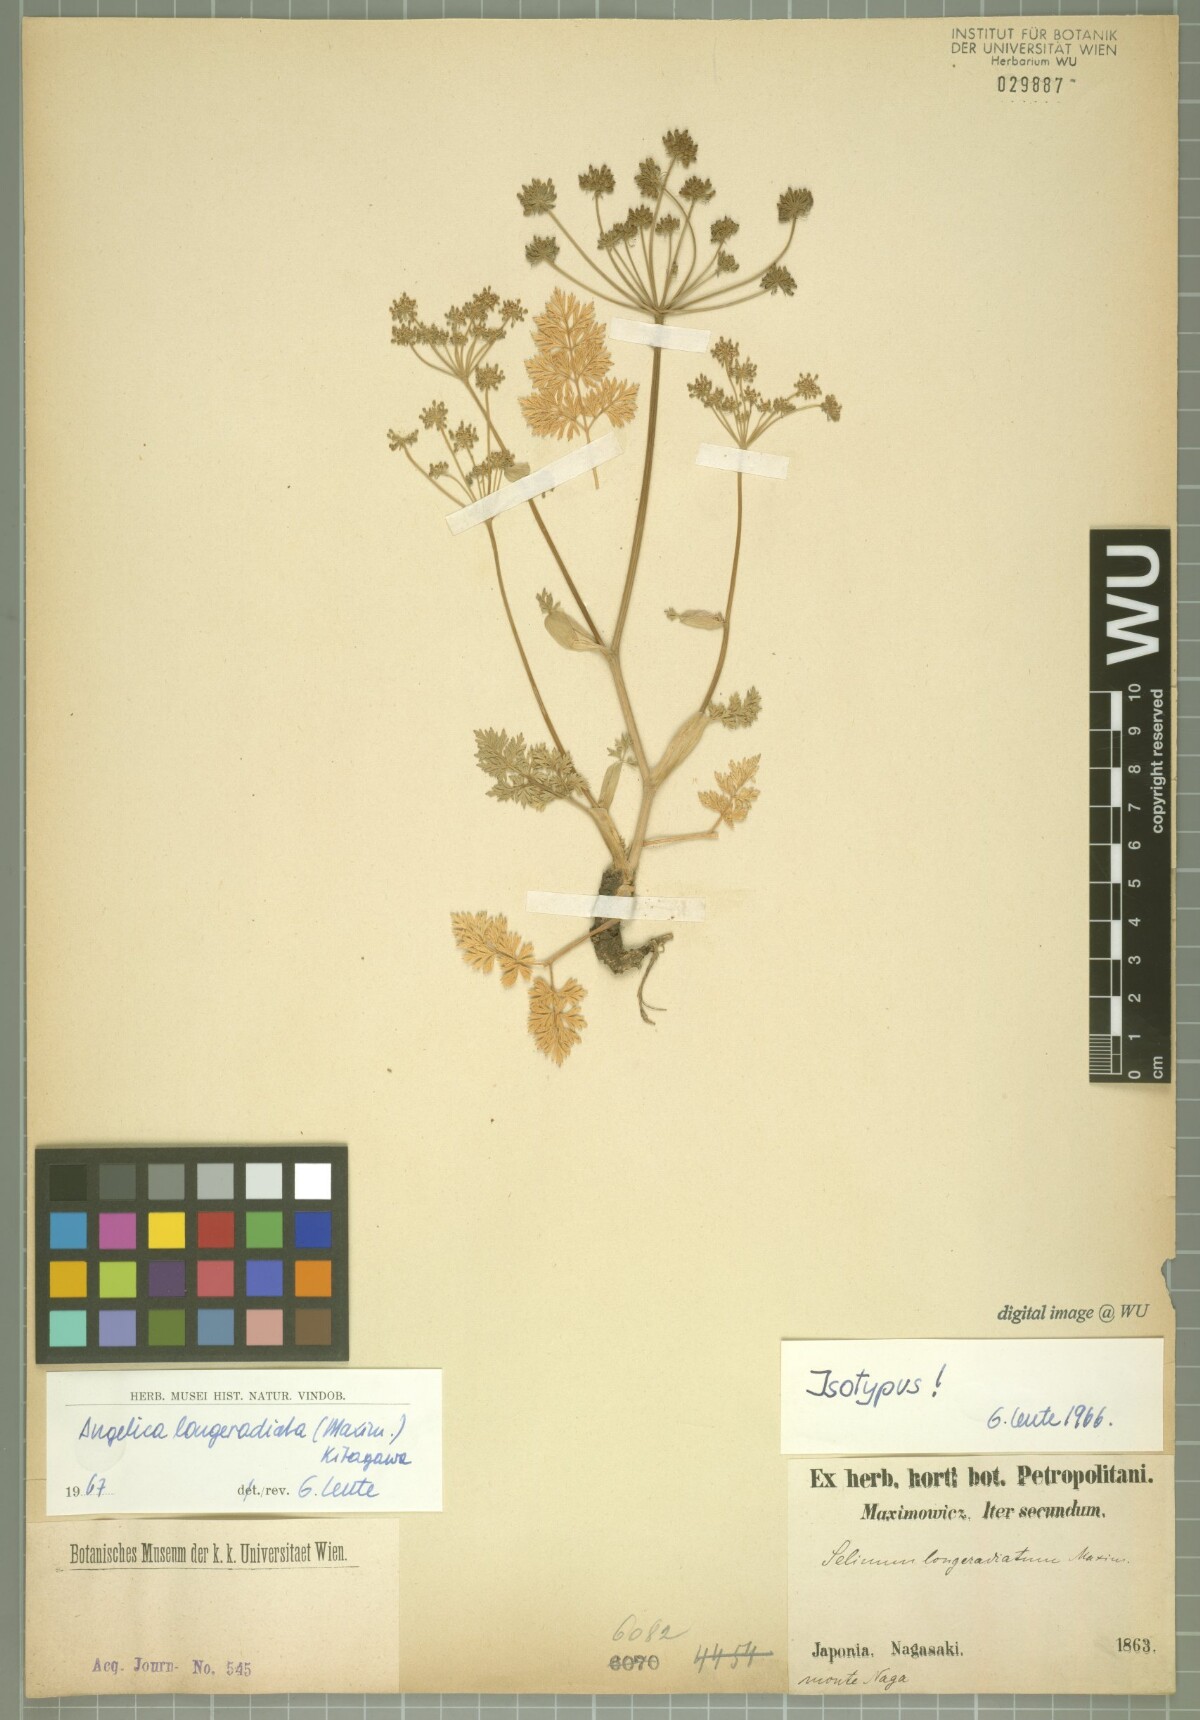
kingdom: Plantae
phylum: Tracheophyta
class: Magnoliopsida
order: Apiales
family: Apiaceae
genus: Angelica
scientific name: Angelica longeradiata
